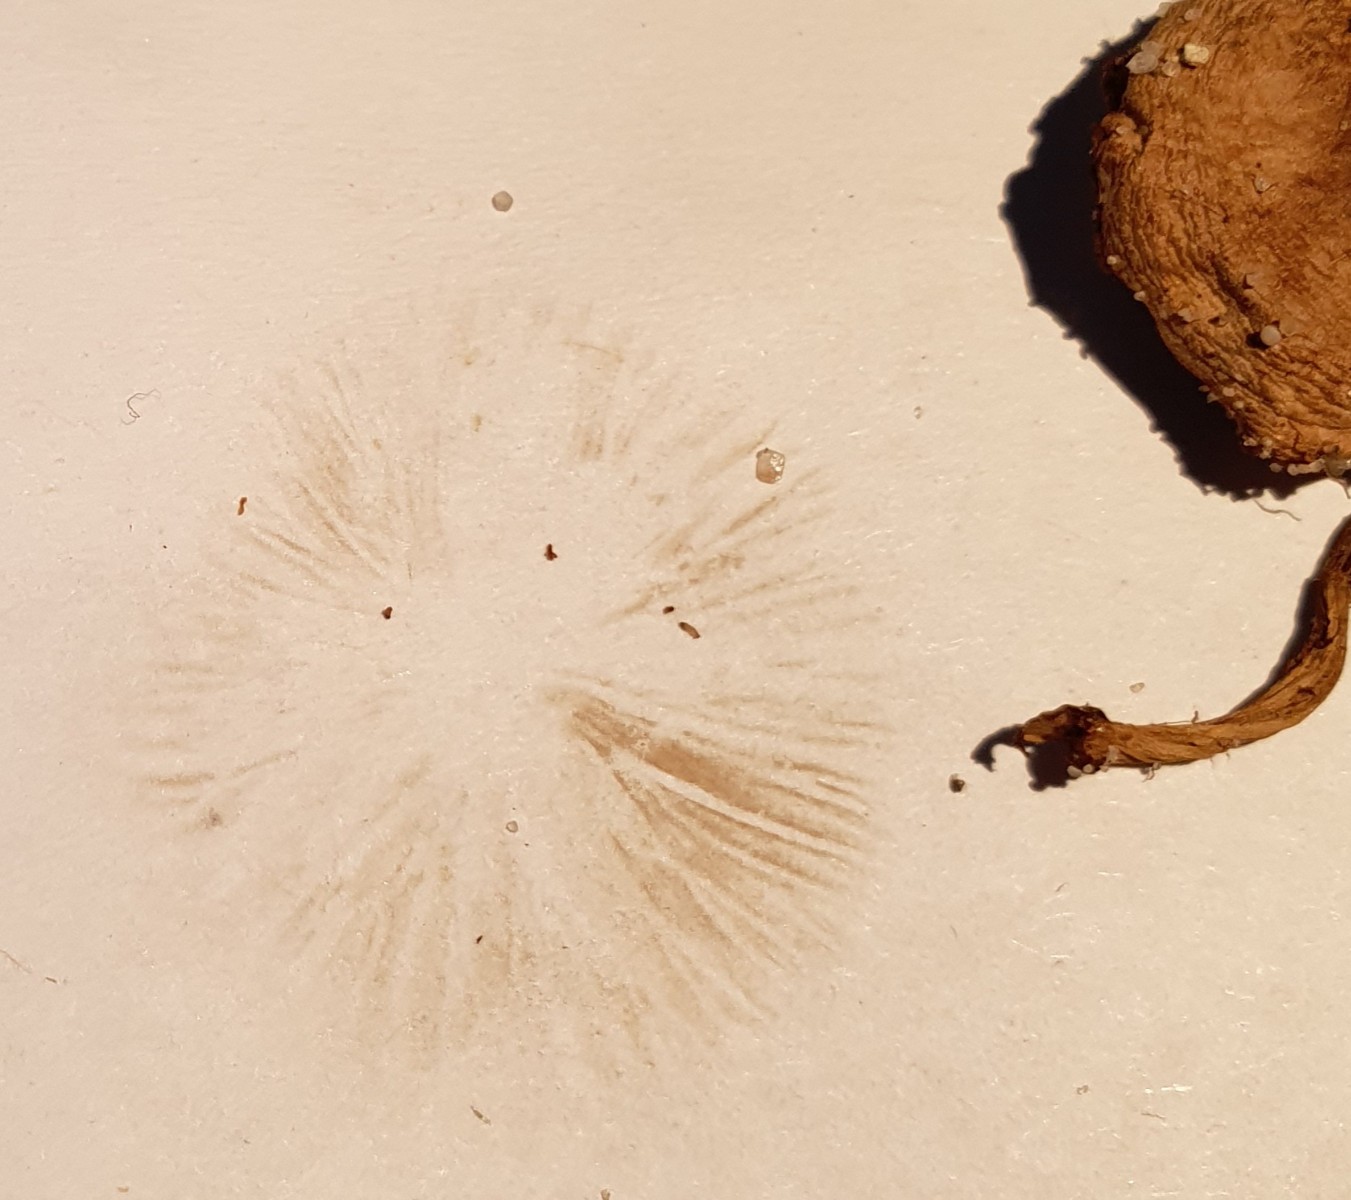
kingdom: Fungi
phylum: Basidiomycota
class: Agaricomycetes
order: Agaricales
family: Hymenogastraceae
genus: Hebeloma
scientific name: Hebeloma
